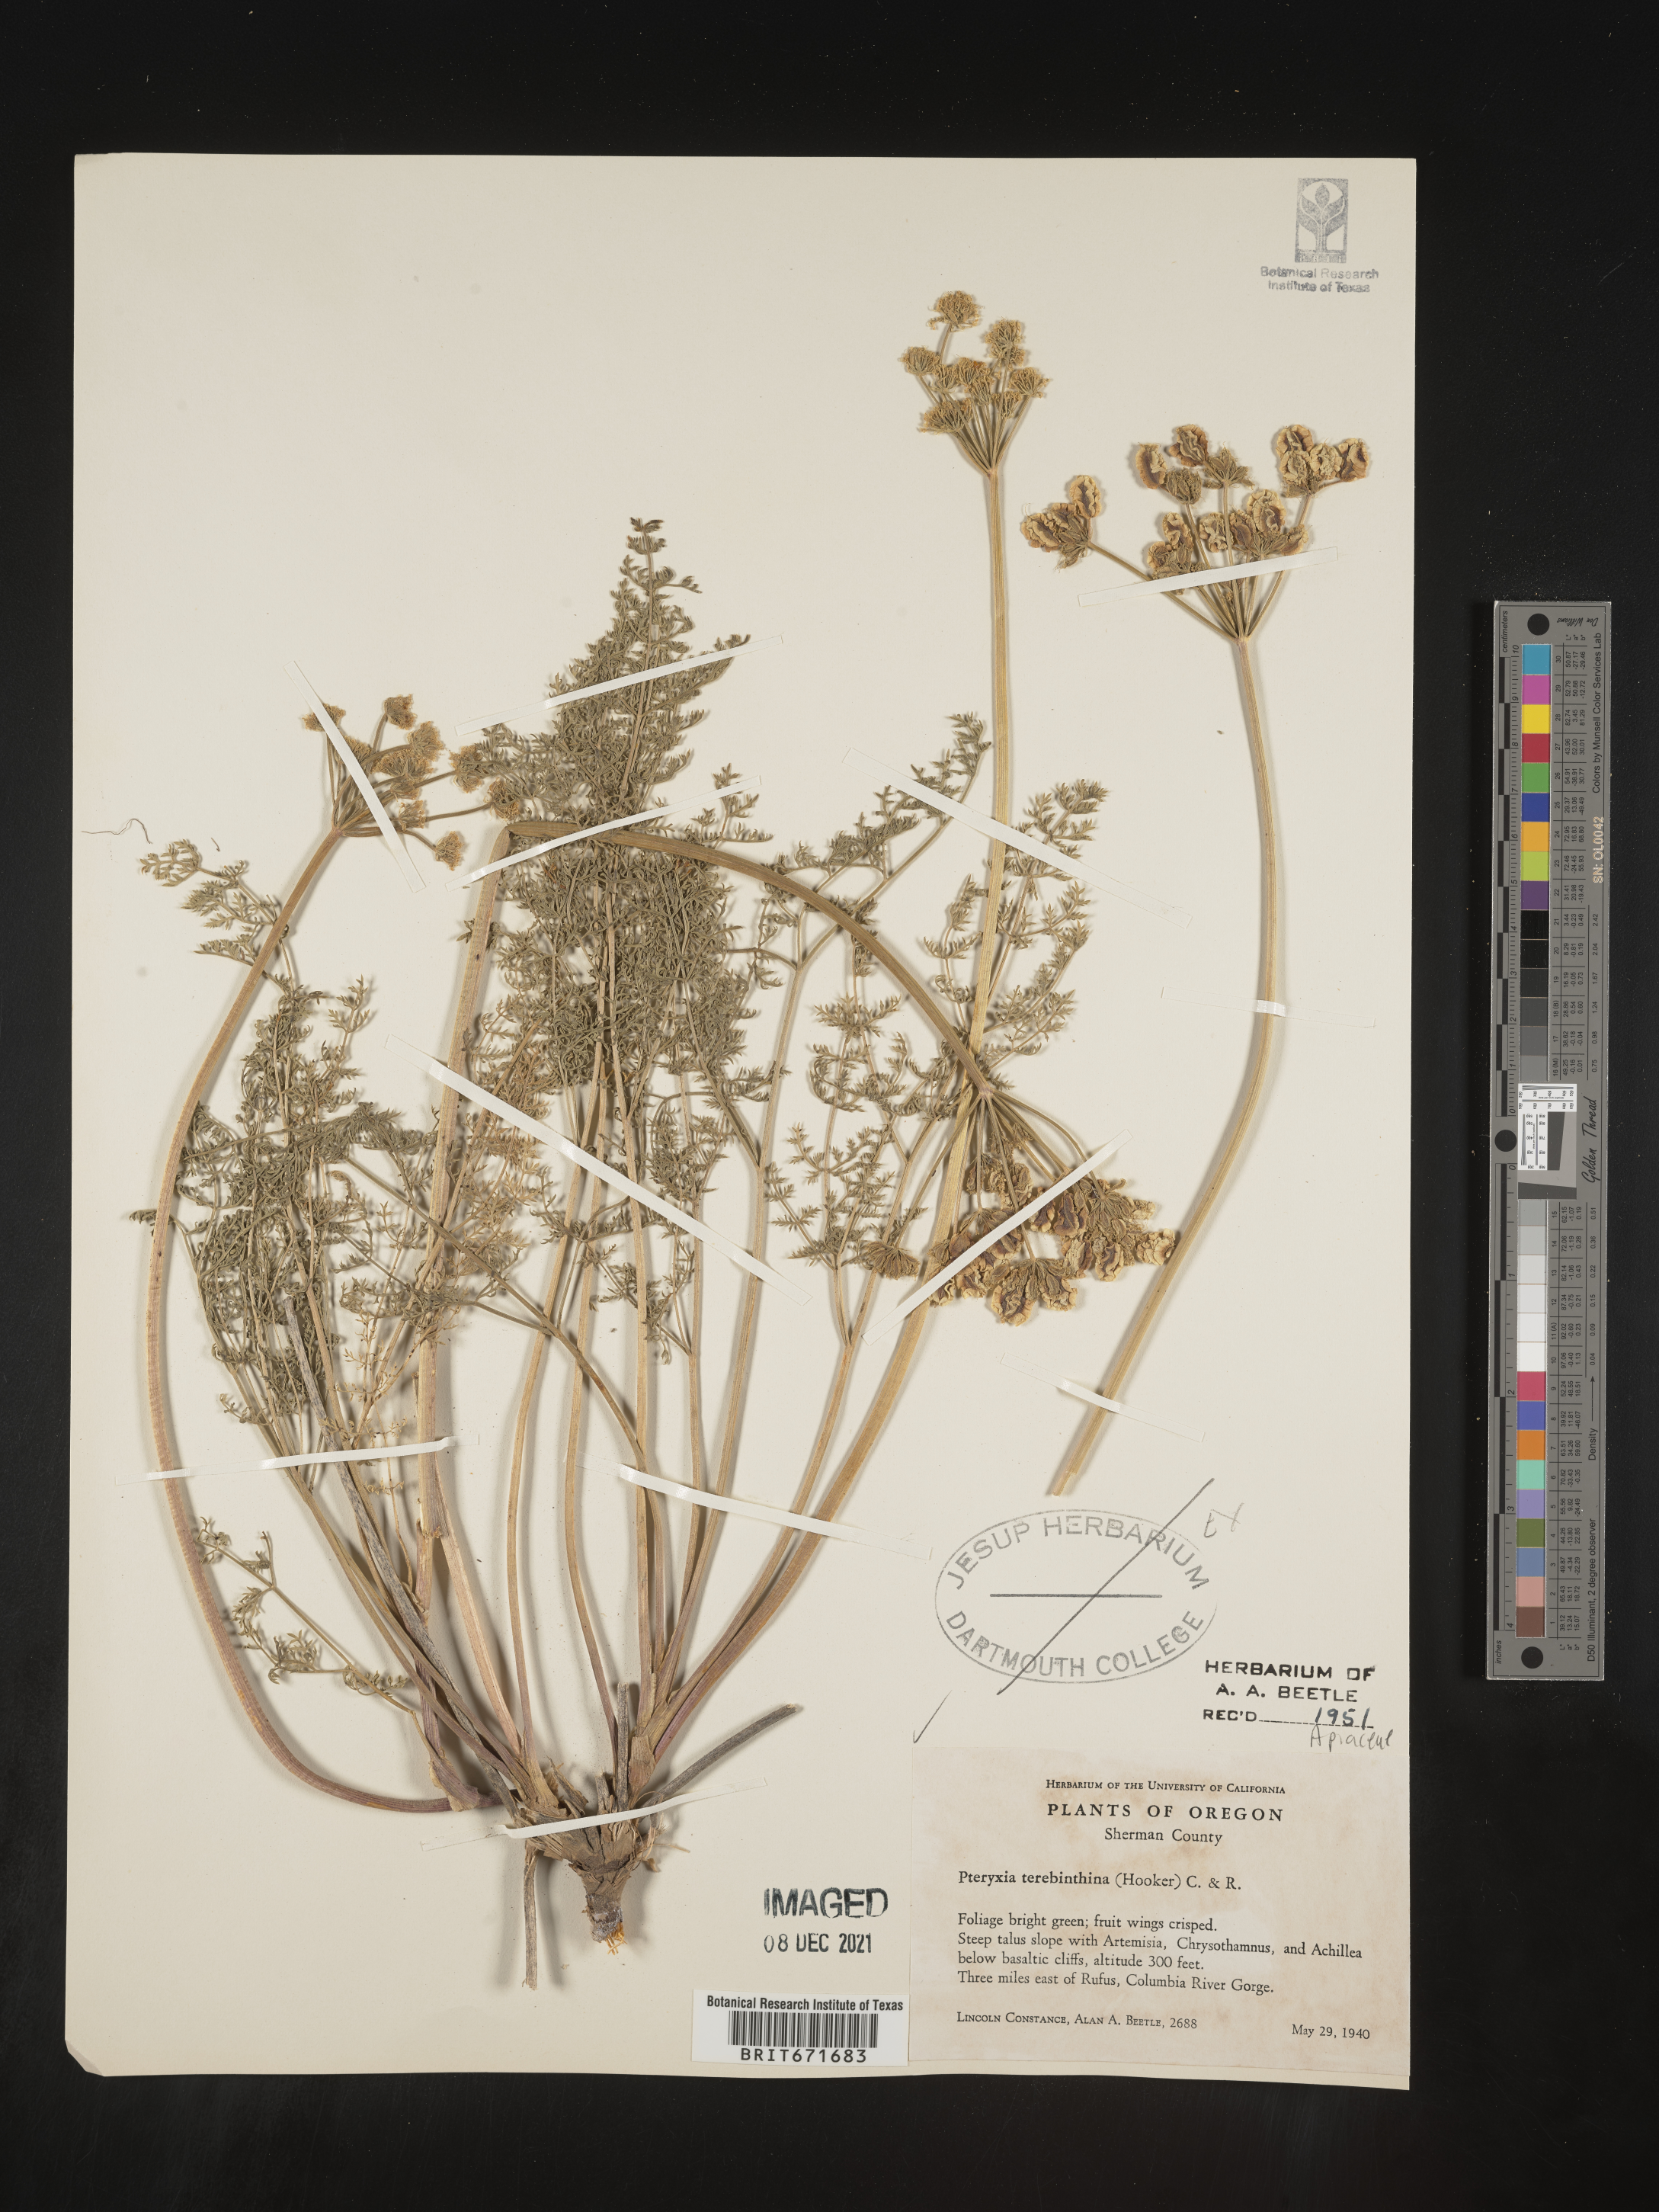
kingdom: Plantae
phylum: Tracheophyta
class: Magnoliopsida
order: Apiales
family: Apiaceae
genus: Pteryxia
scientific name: Pteryxia terebinthina
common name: Turpentine wavewing
